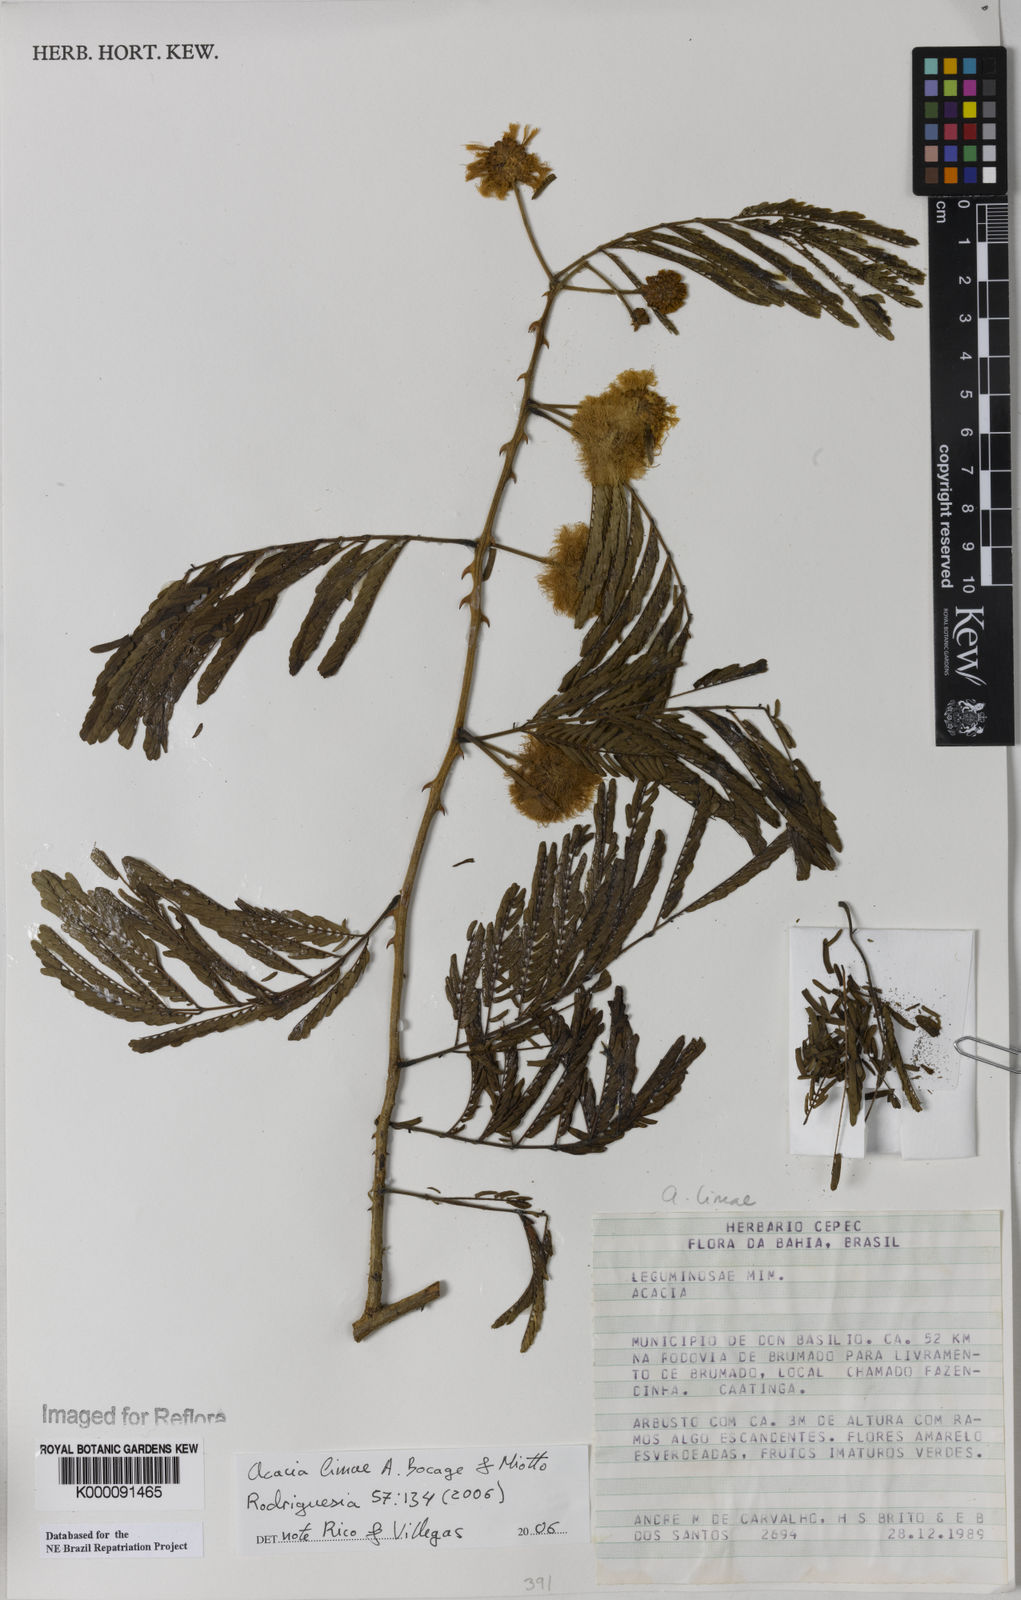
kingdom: Plantae
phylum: Tracheophyta
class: Magnoliopsida
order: Fabales
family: Fabaceae
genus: Senegalia
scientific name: Senegalia lasiophylla
